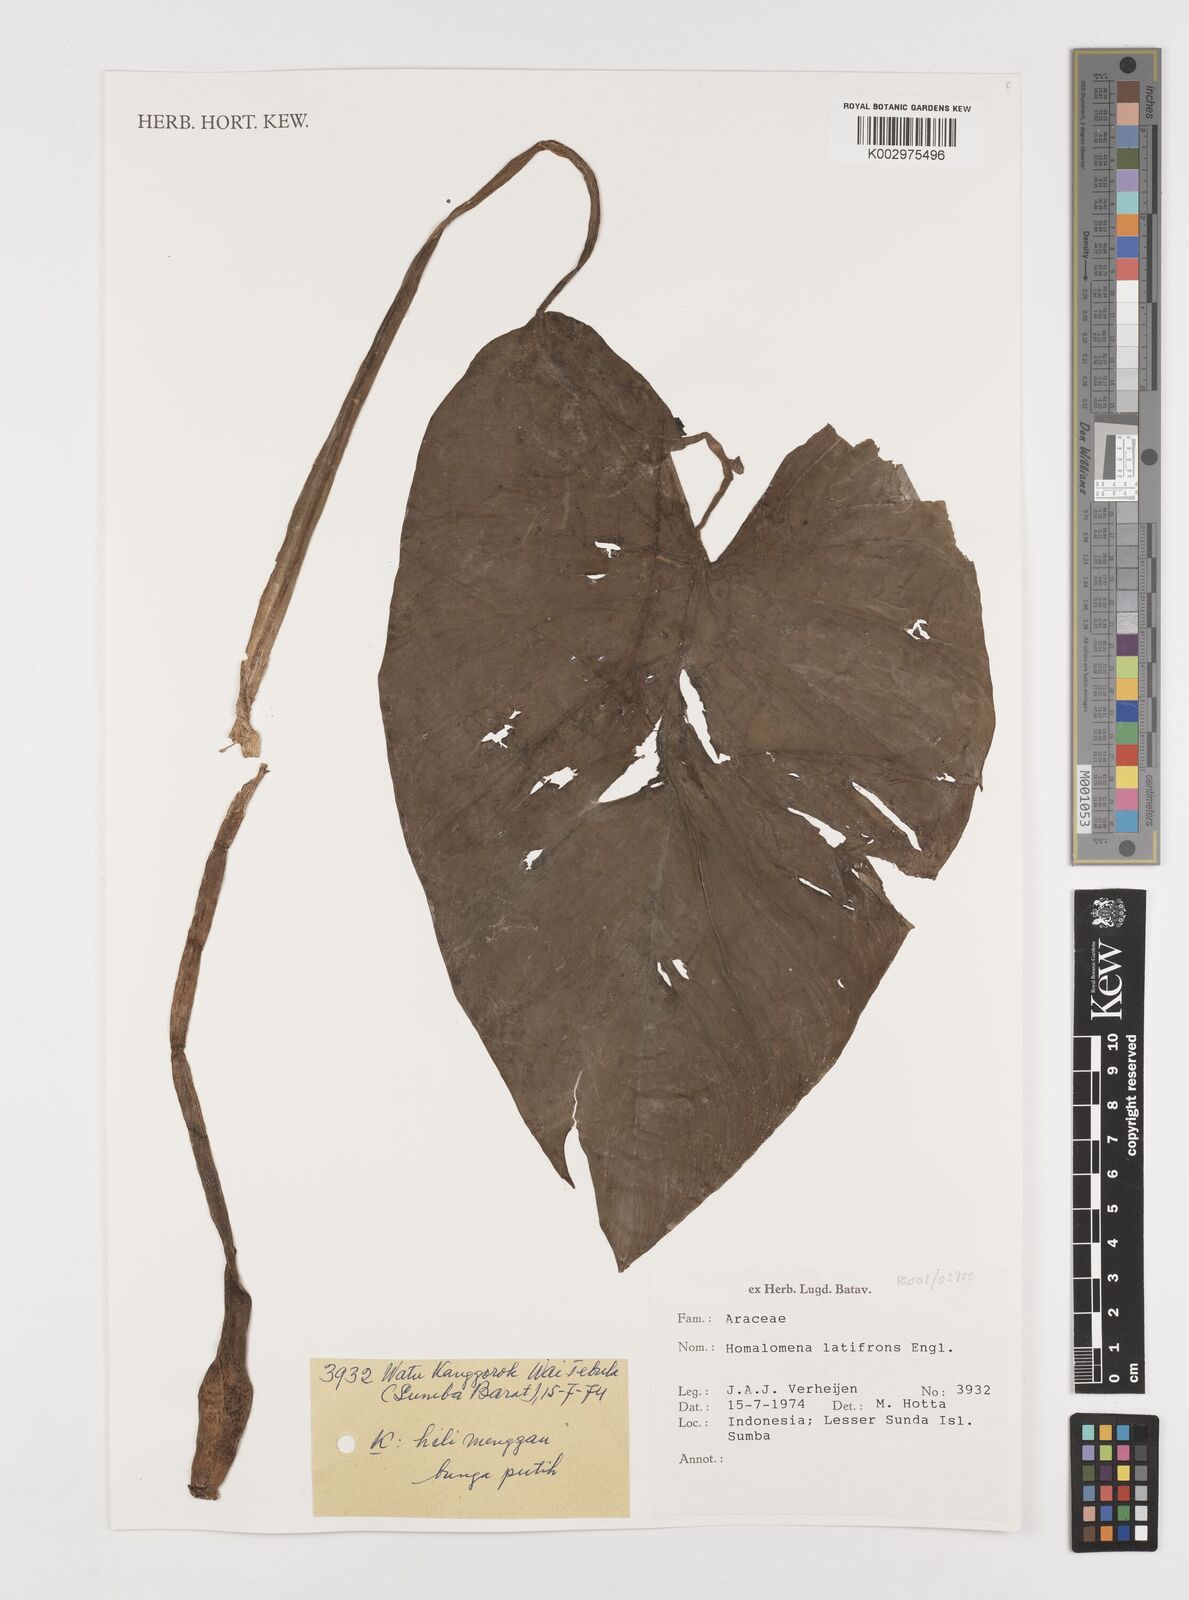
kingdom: Plantae
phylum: Tracheophyta
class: Liliopsida
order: Alismatales
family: Araceae
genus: Homalomena
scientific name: Homalomena pendula
